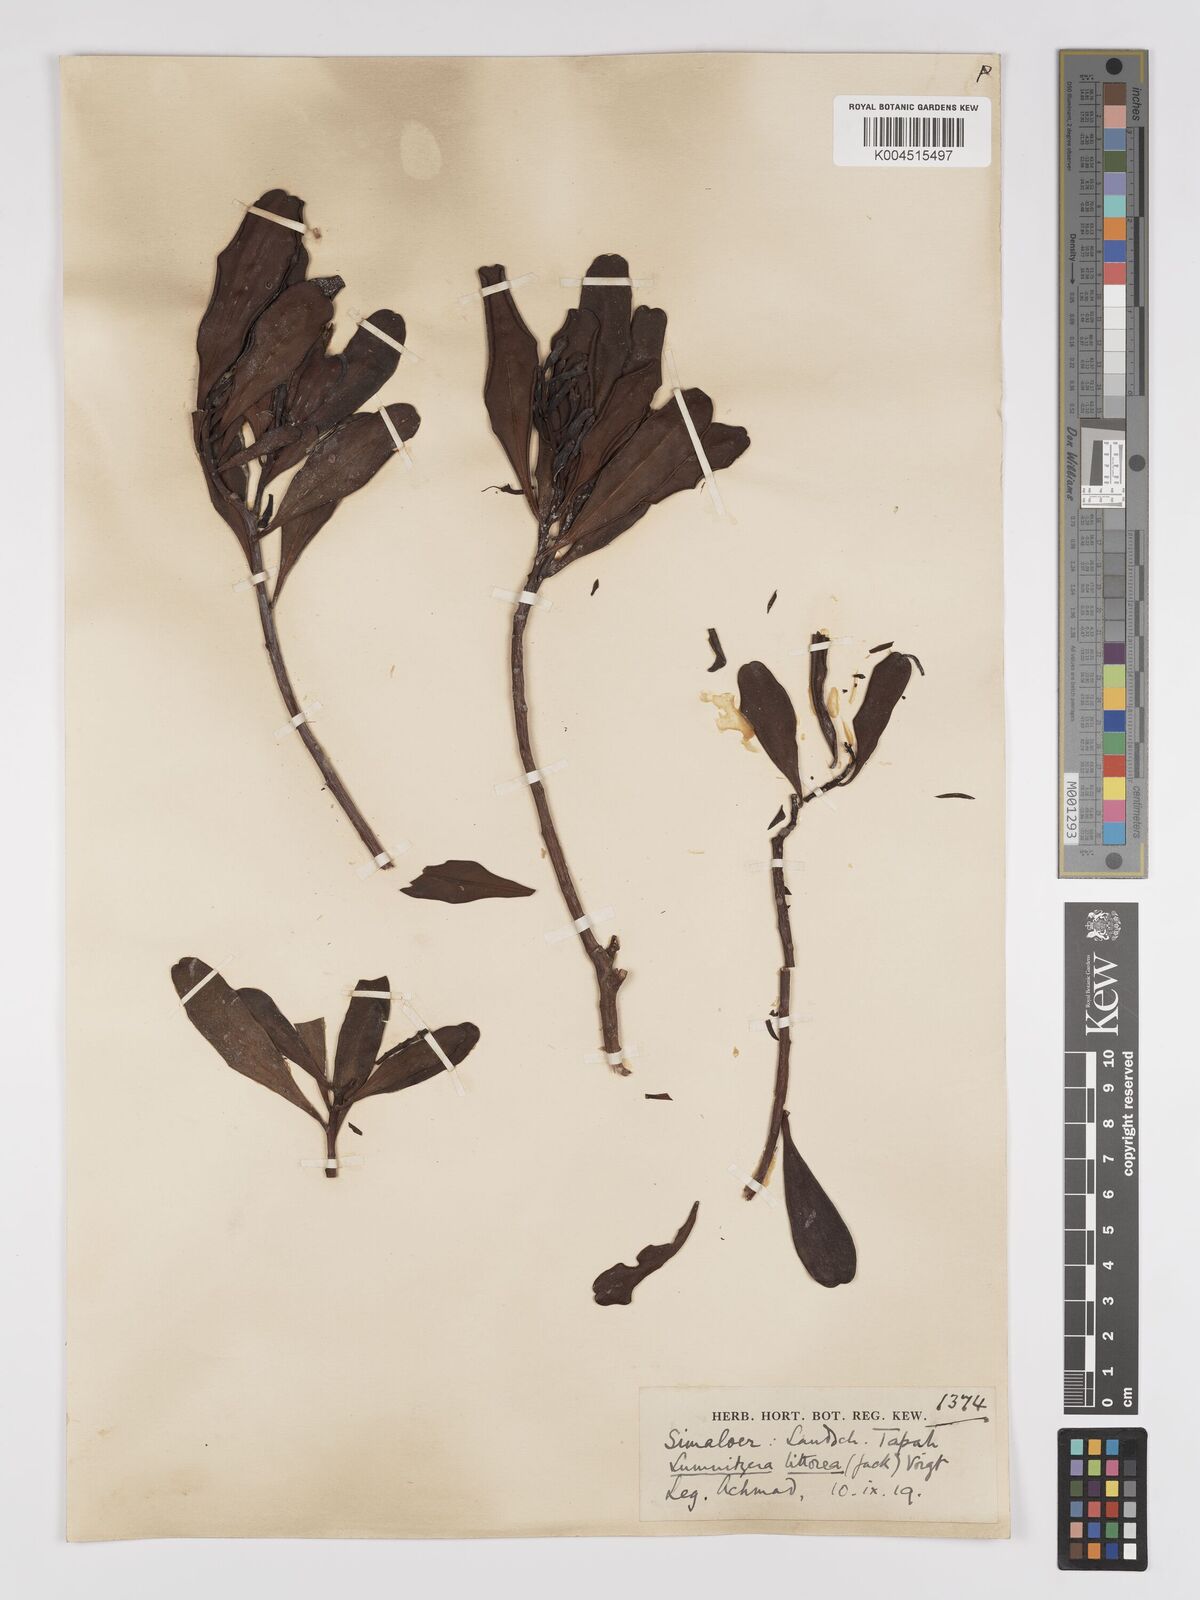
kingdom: Plantae
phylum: Tracheophyta
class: Magnoliopsida
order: Myrtales
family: Combretaceae
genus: Lumnitzera
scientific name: Lumnitzera littorea
